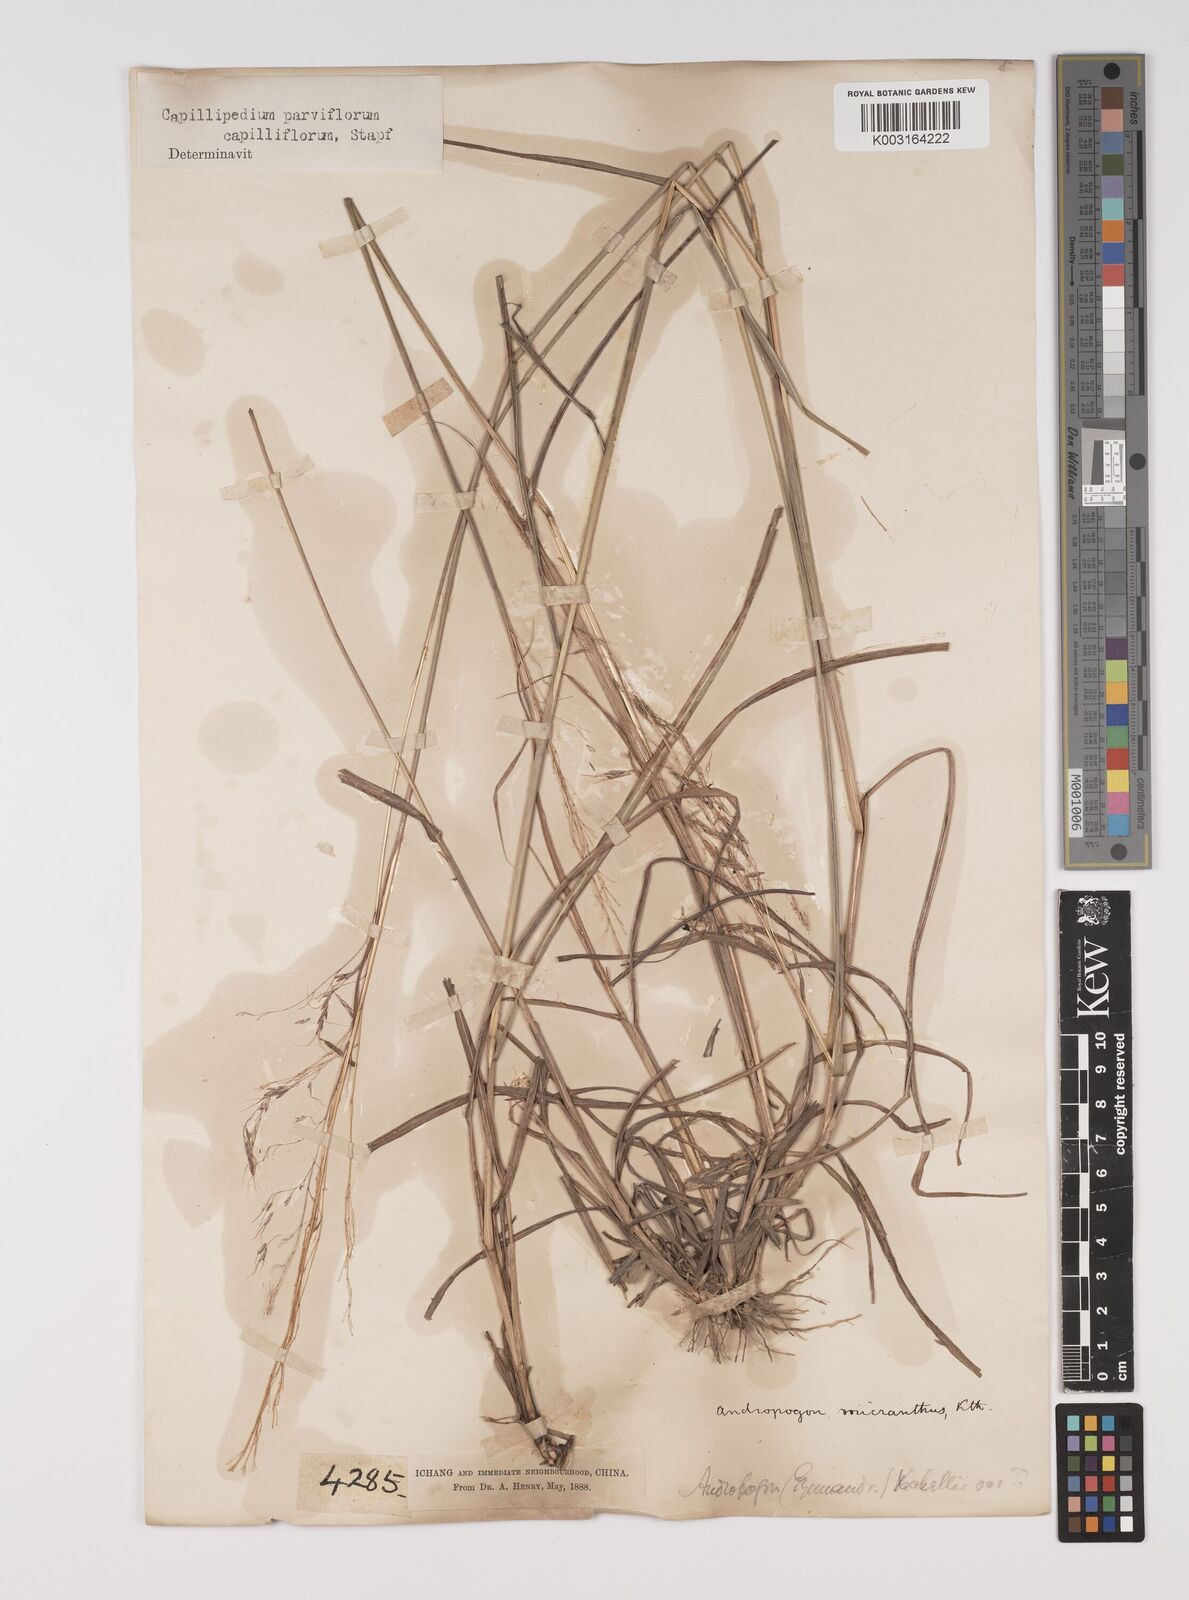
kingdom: Plantae
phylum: Tracheophyta
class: Liliopsida
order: Poales
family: Poaceae
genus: Capillipedium
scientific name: Capillipedium parviflorum
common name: Golden-beard
